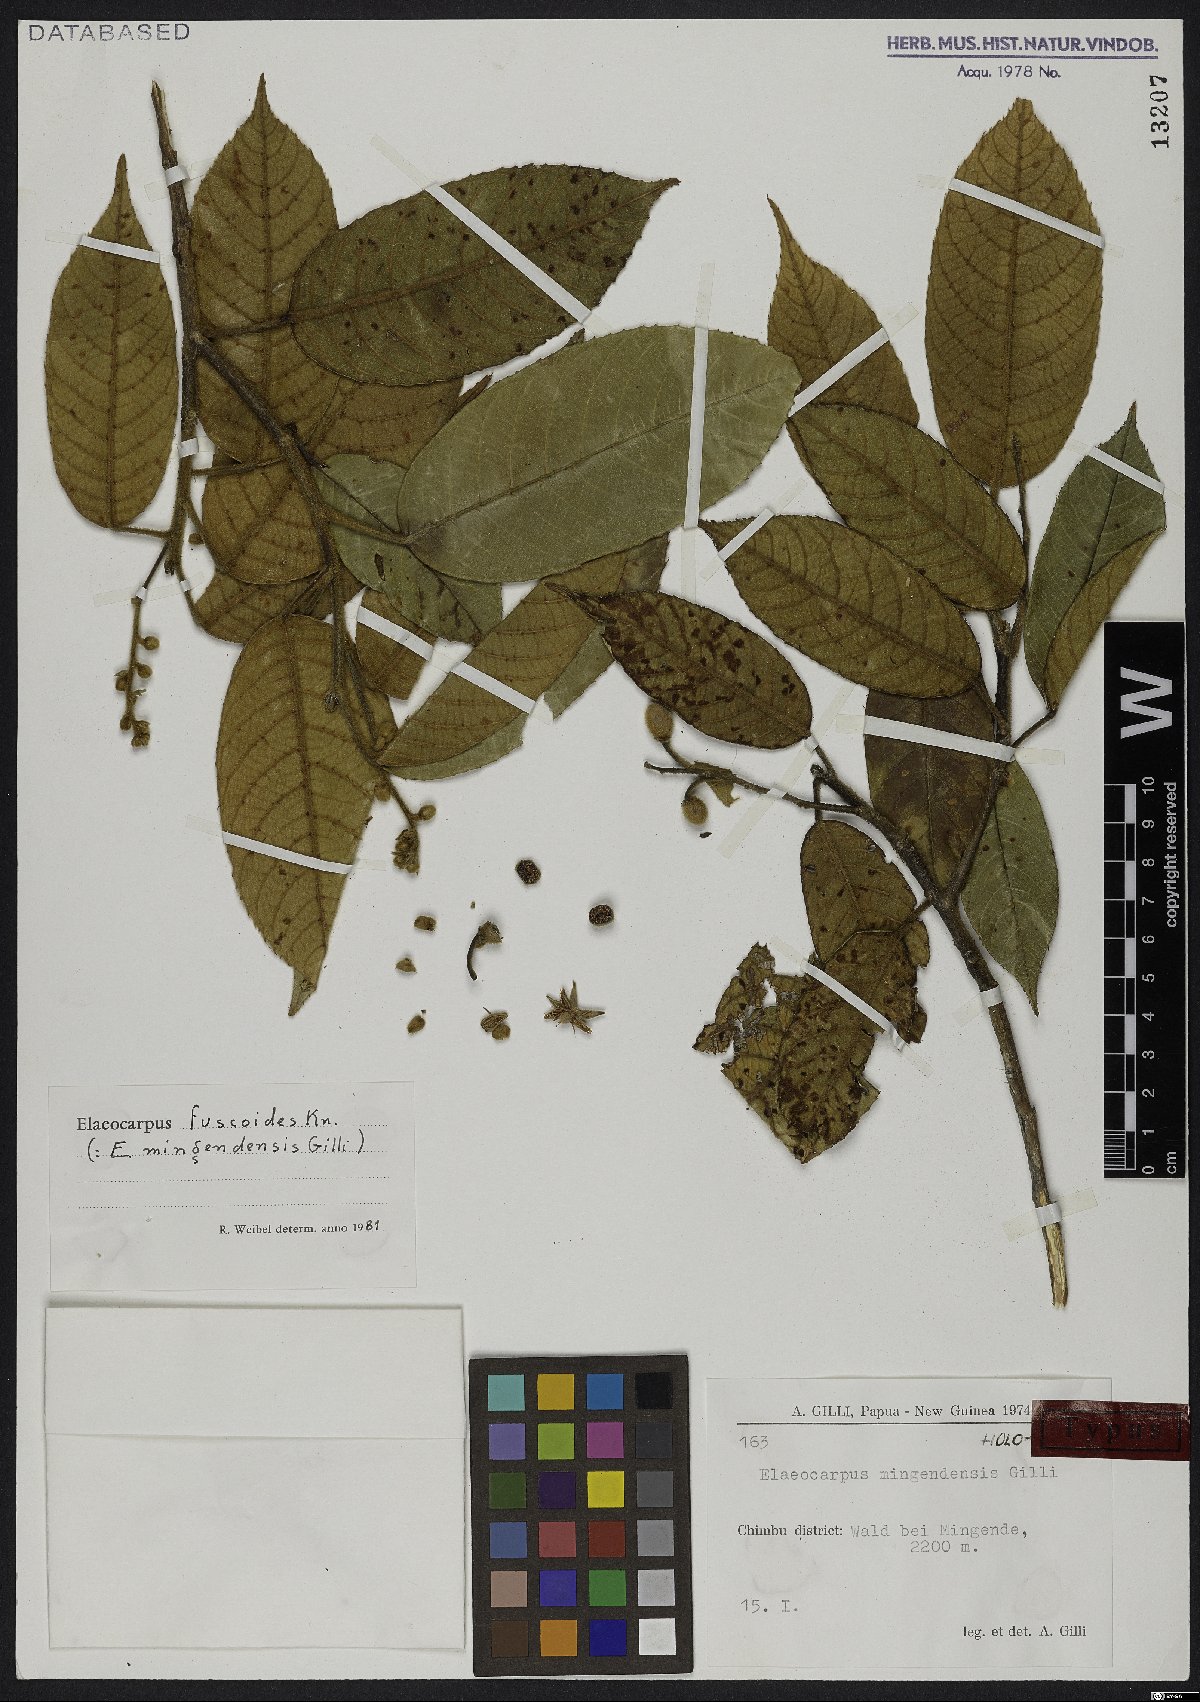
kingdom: Plantae
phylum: Tracheophyta
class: Magnoliopsida
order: Oxalidales
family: Elaeocarpaceae
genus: Elaeocarpus
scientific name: Elaeocarpus fuscoides
